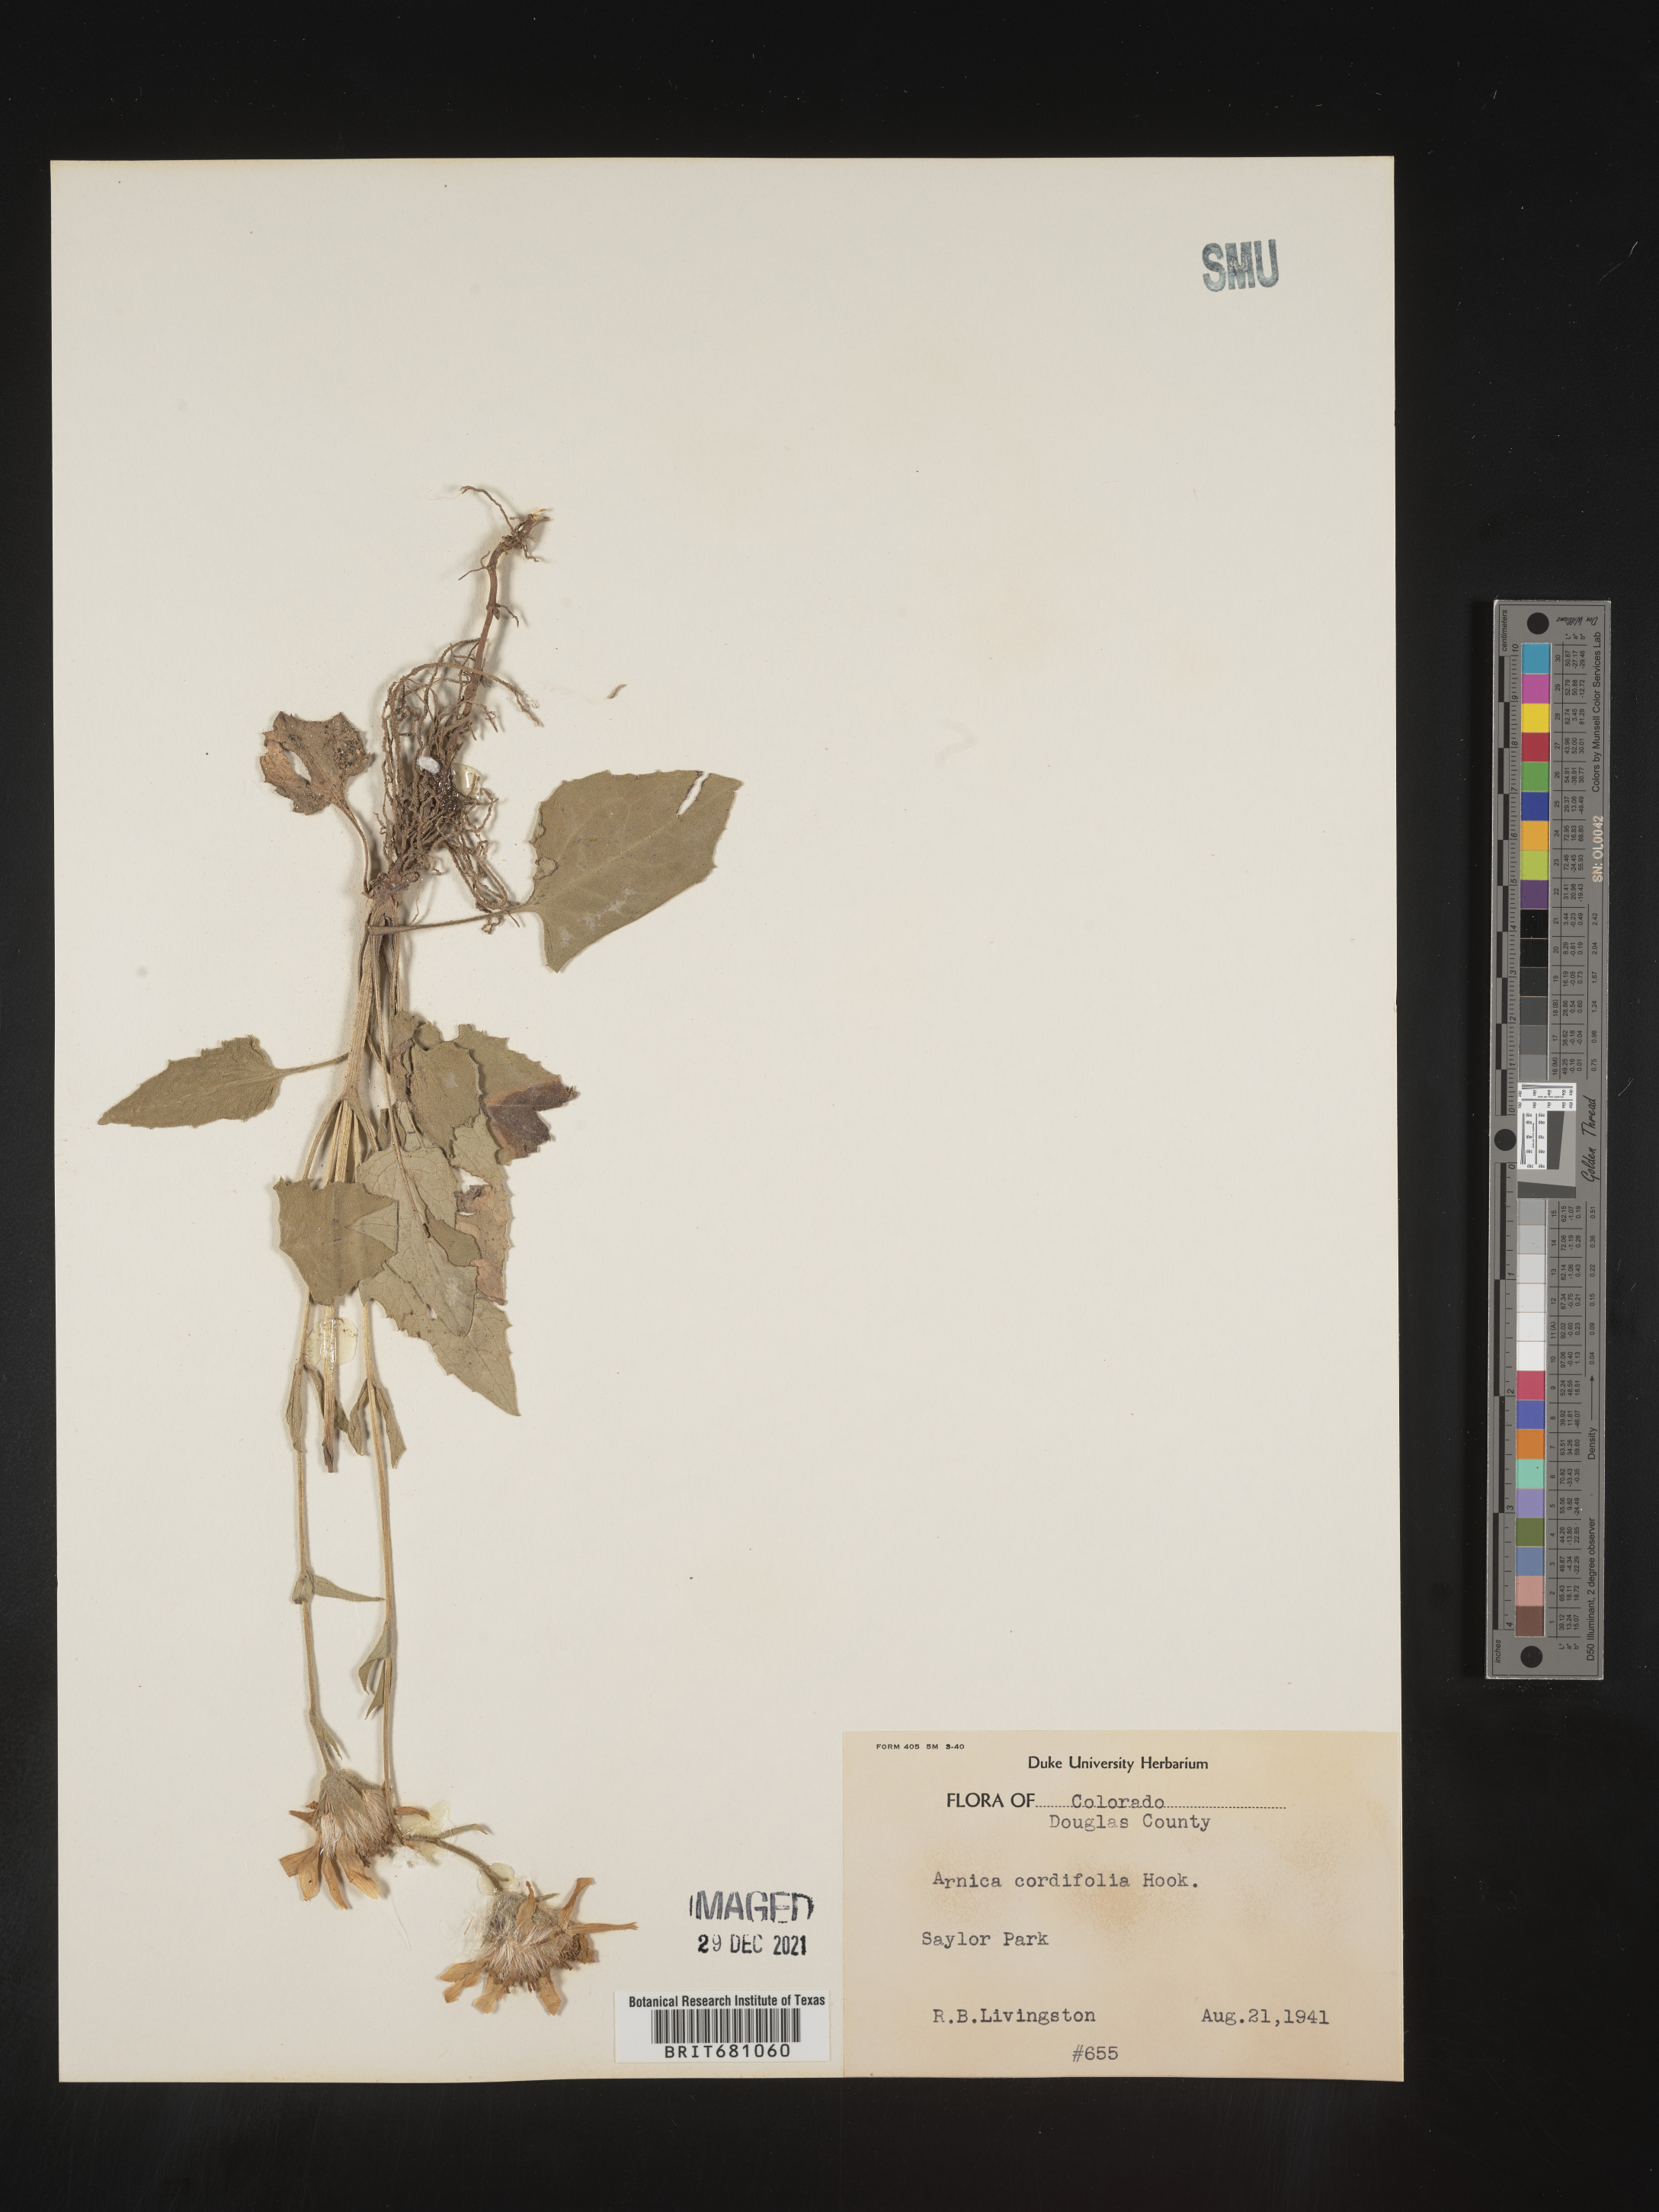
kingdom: Plantae
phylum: Tracheophyta
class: Magnoliopsida
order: Asterales
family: Asteraceae
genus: Arnica
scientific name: Arnica cordifolia
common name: Heart-leaf arnica
